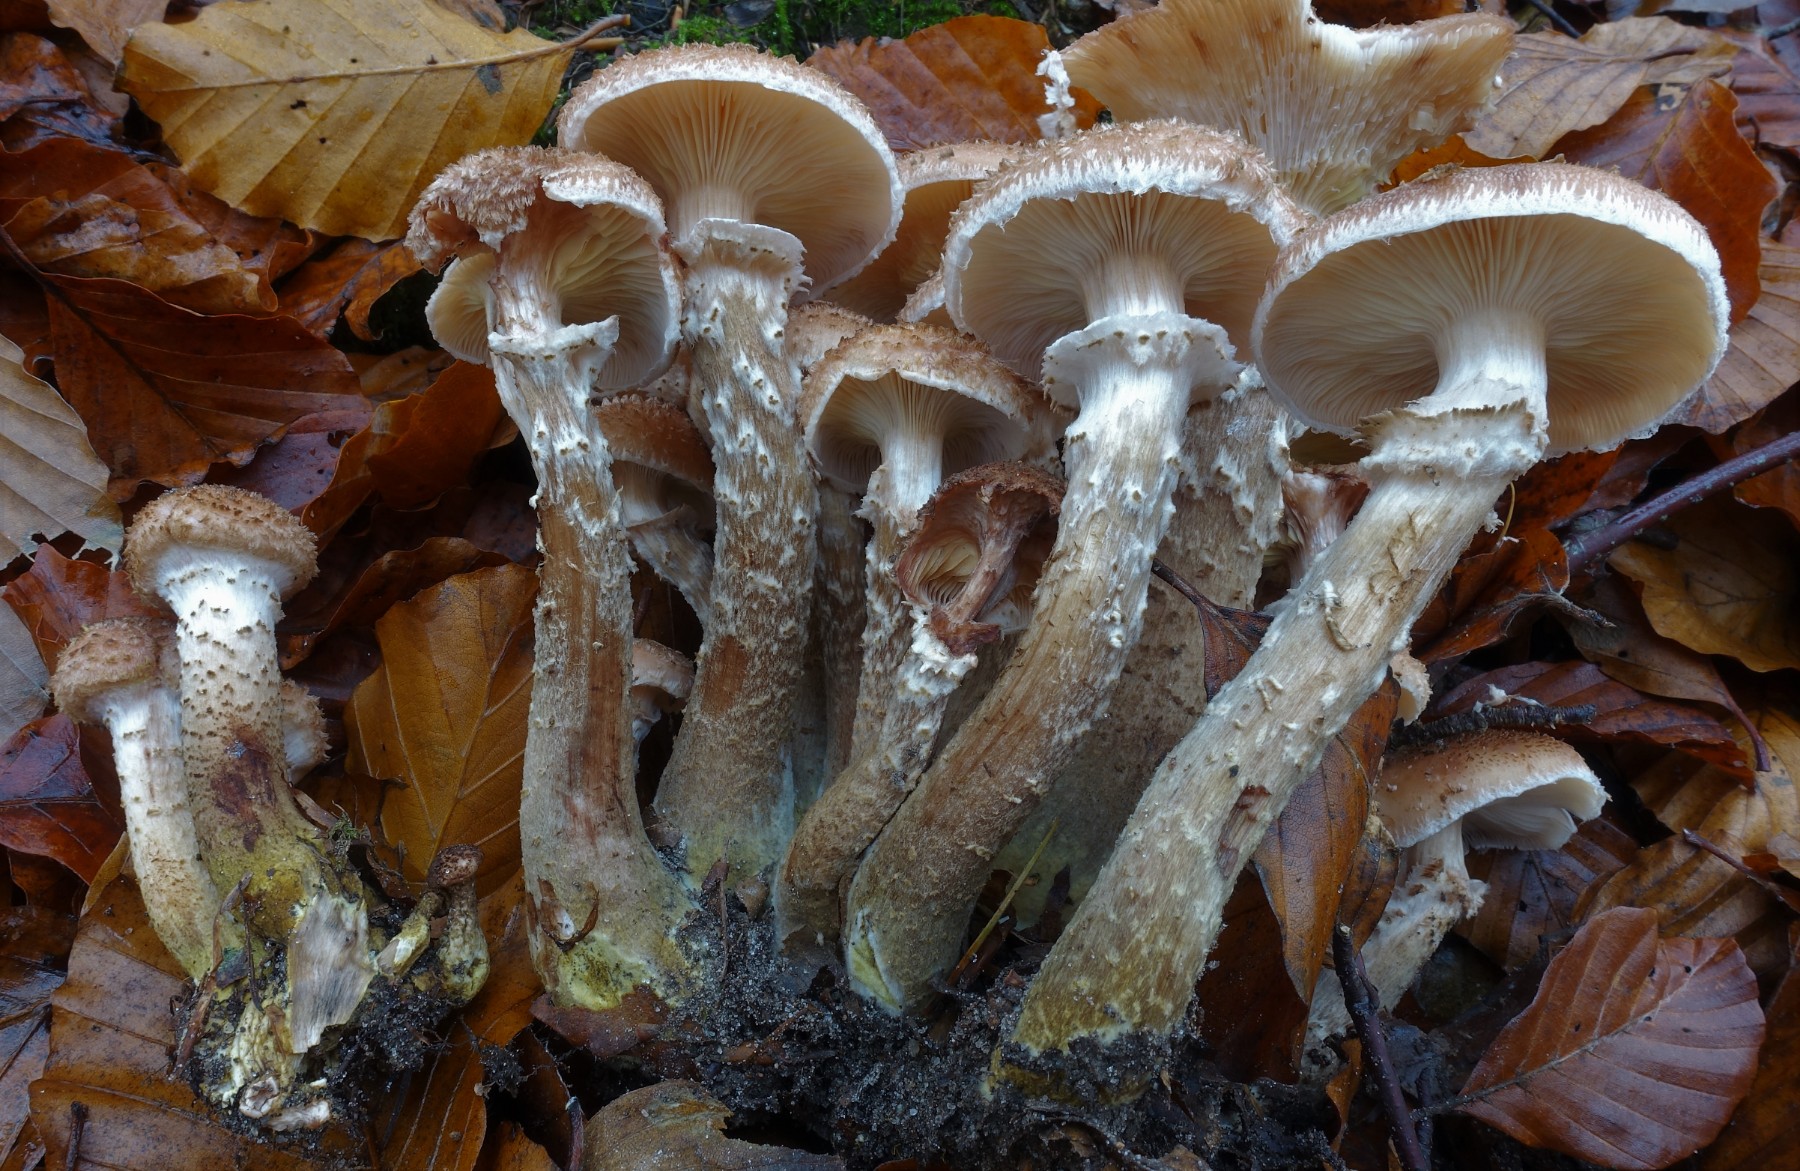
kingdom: Fungi
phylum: Basidiomycota
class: Agaricomycetes
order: Agaricales
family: Physalacriaceae
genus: Armillaria
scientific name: Armillaria lutea
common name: køllestokket honningsvamp
